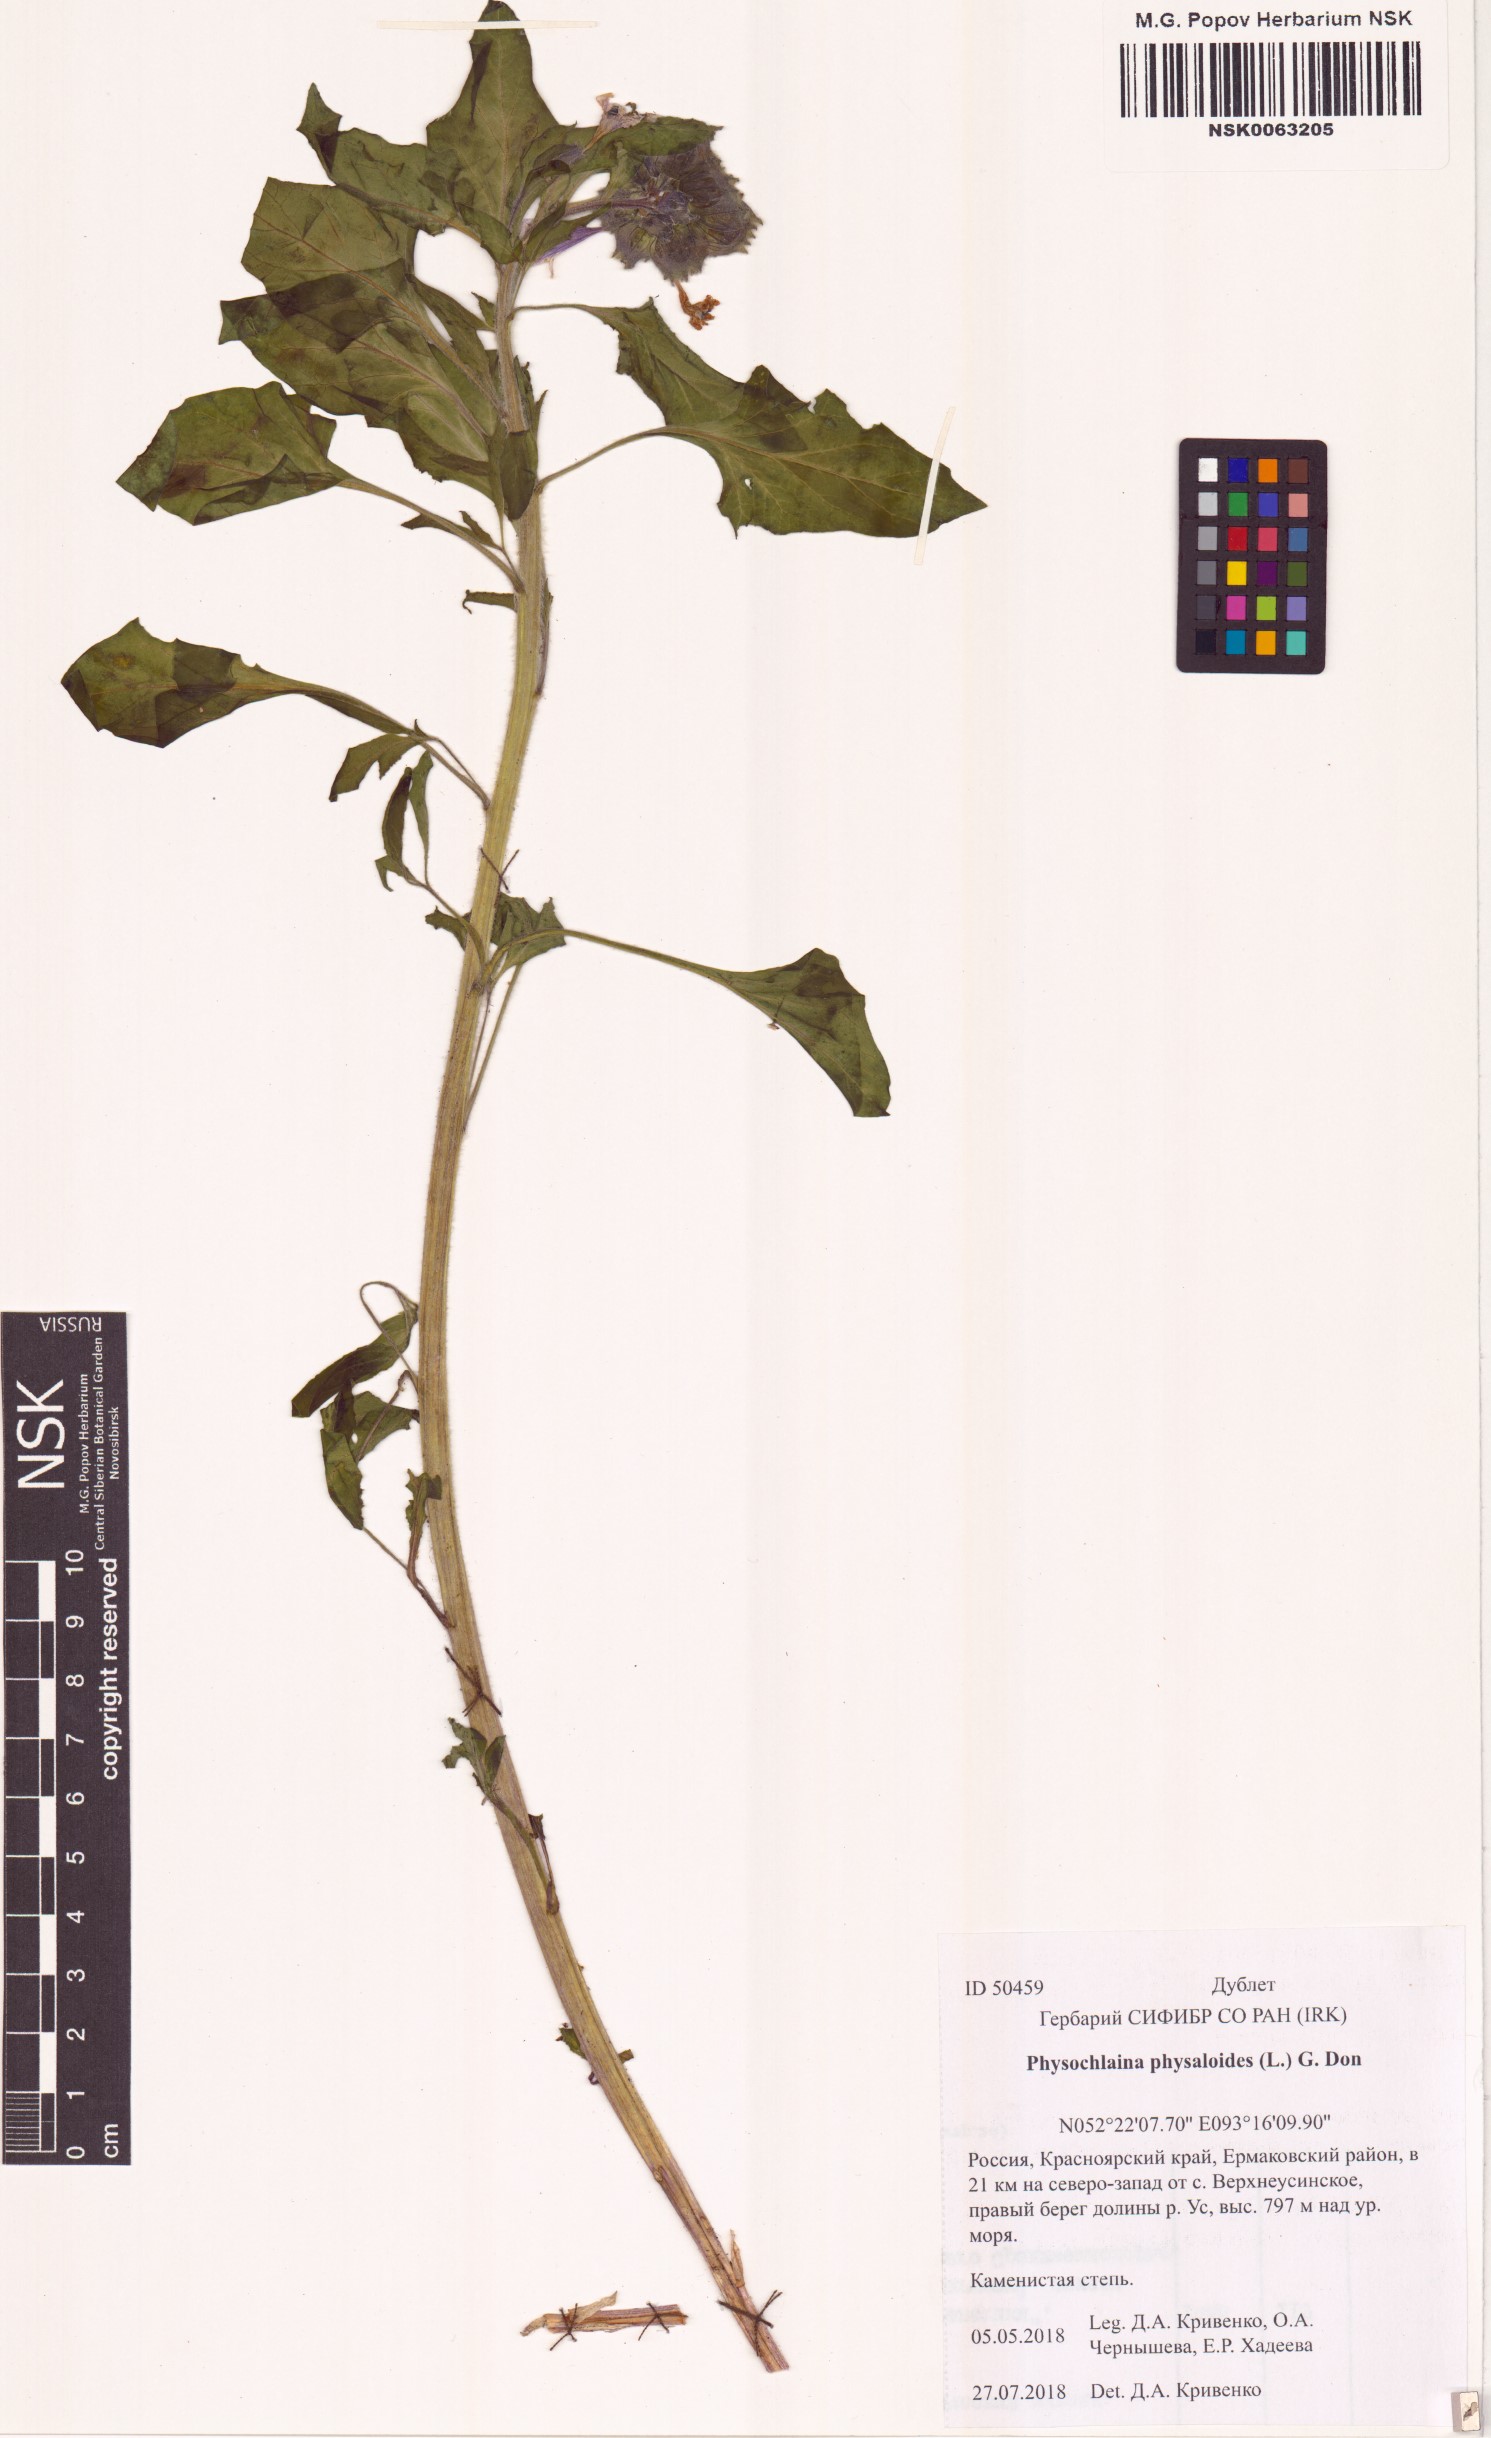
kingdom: Plantae
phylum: Tracheophyta
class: Magnoliopsida
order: Solanales
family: Solanaceae
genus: Physochlaina
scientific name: Physochlaina physaloides
